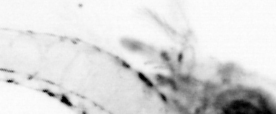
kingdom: Animalia
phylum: Arthropoda
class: Copepoda
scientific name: Copepoda
